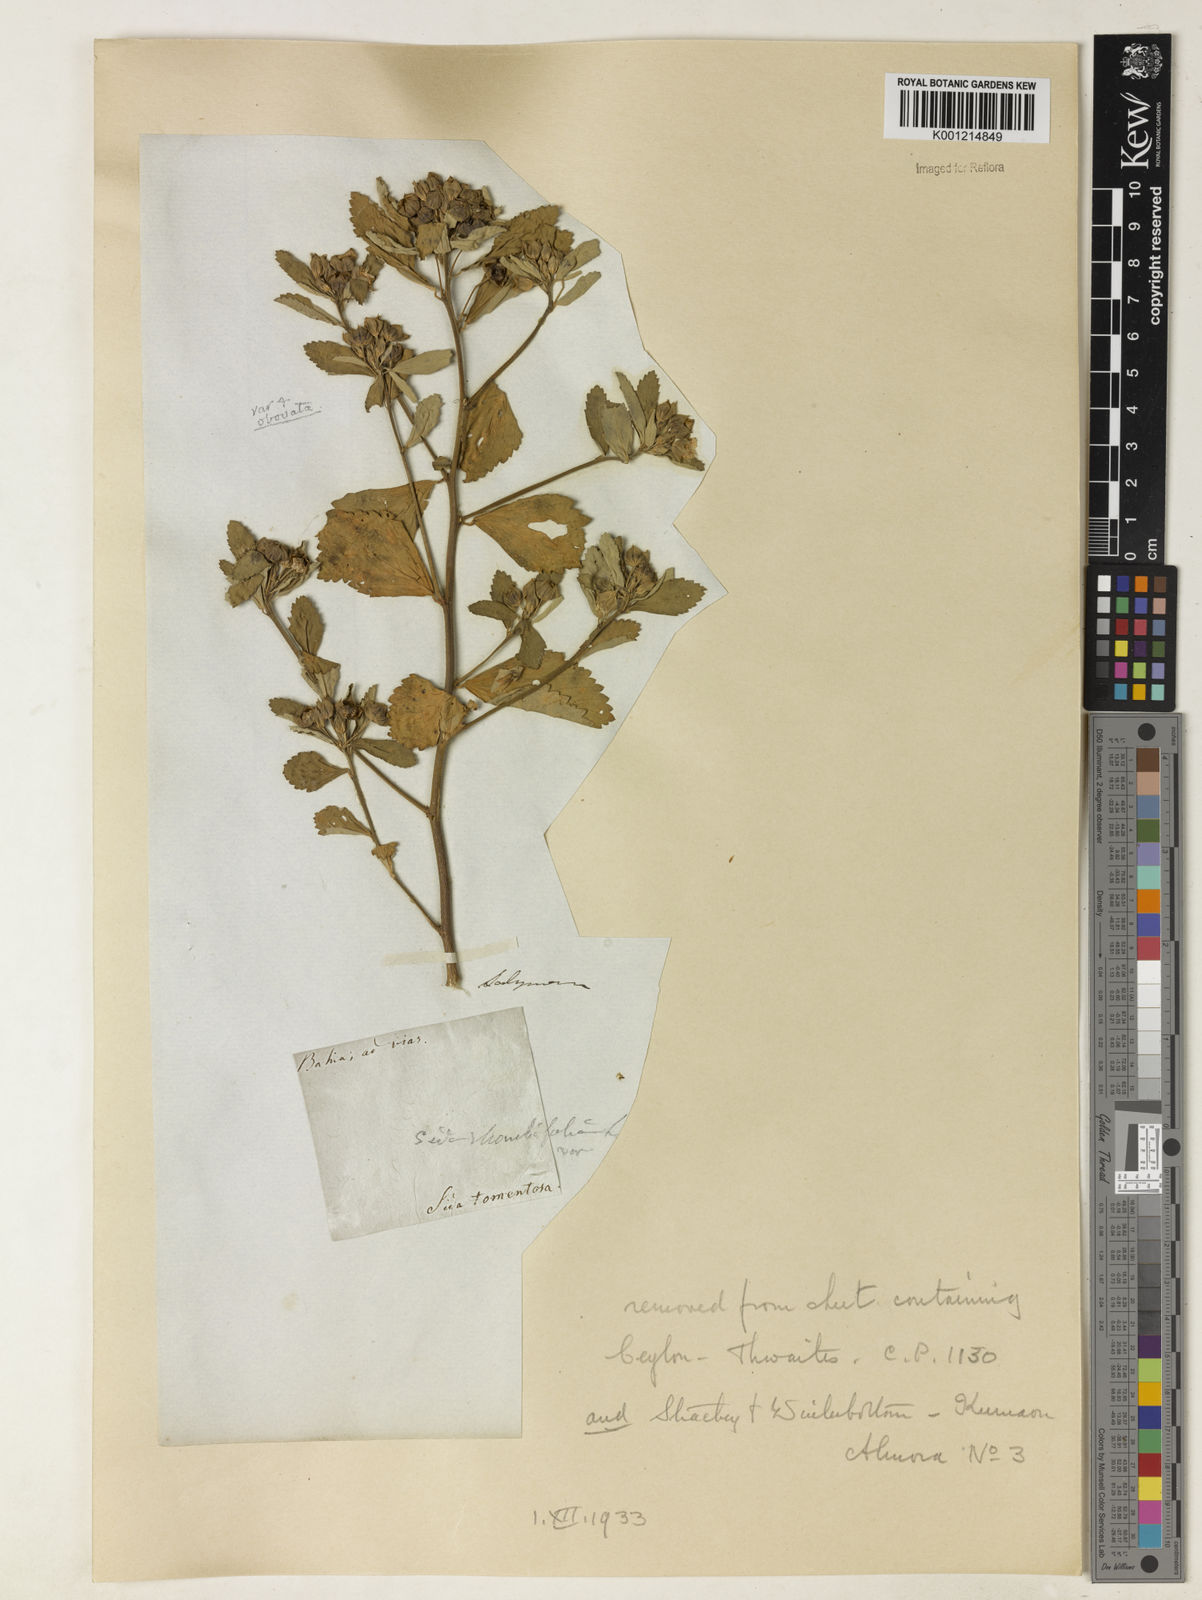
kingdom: Plantae
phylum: Tracheophyta
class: Magnoliopsida
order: Malvales
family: Malvaceae
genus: Sida
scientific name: Sida rhombifolia
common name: Queensland-hemp
